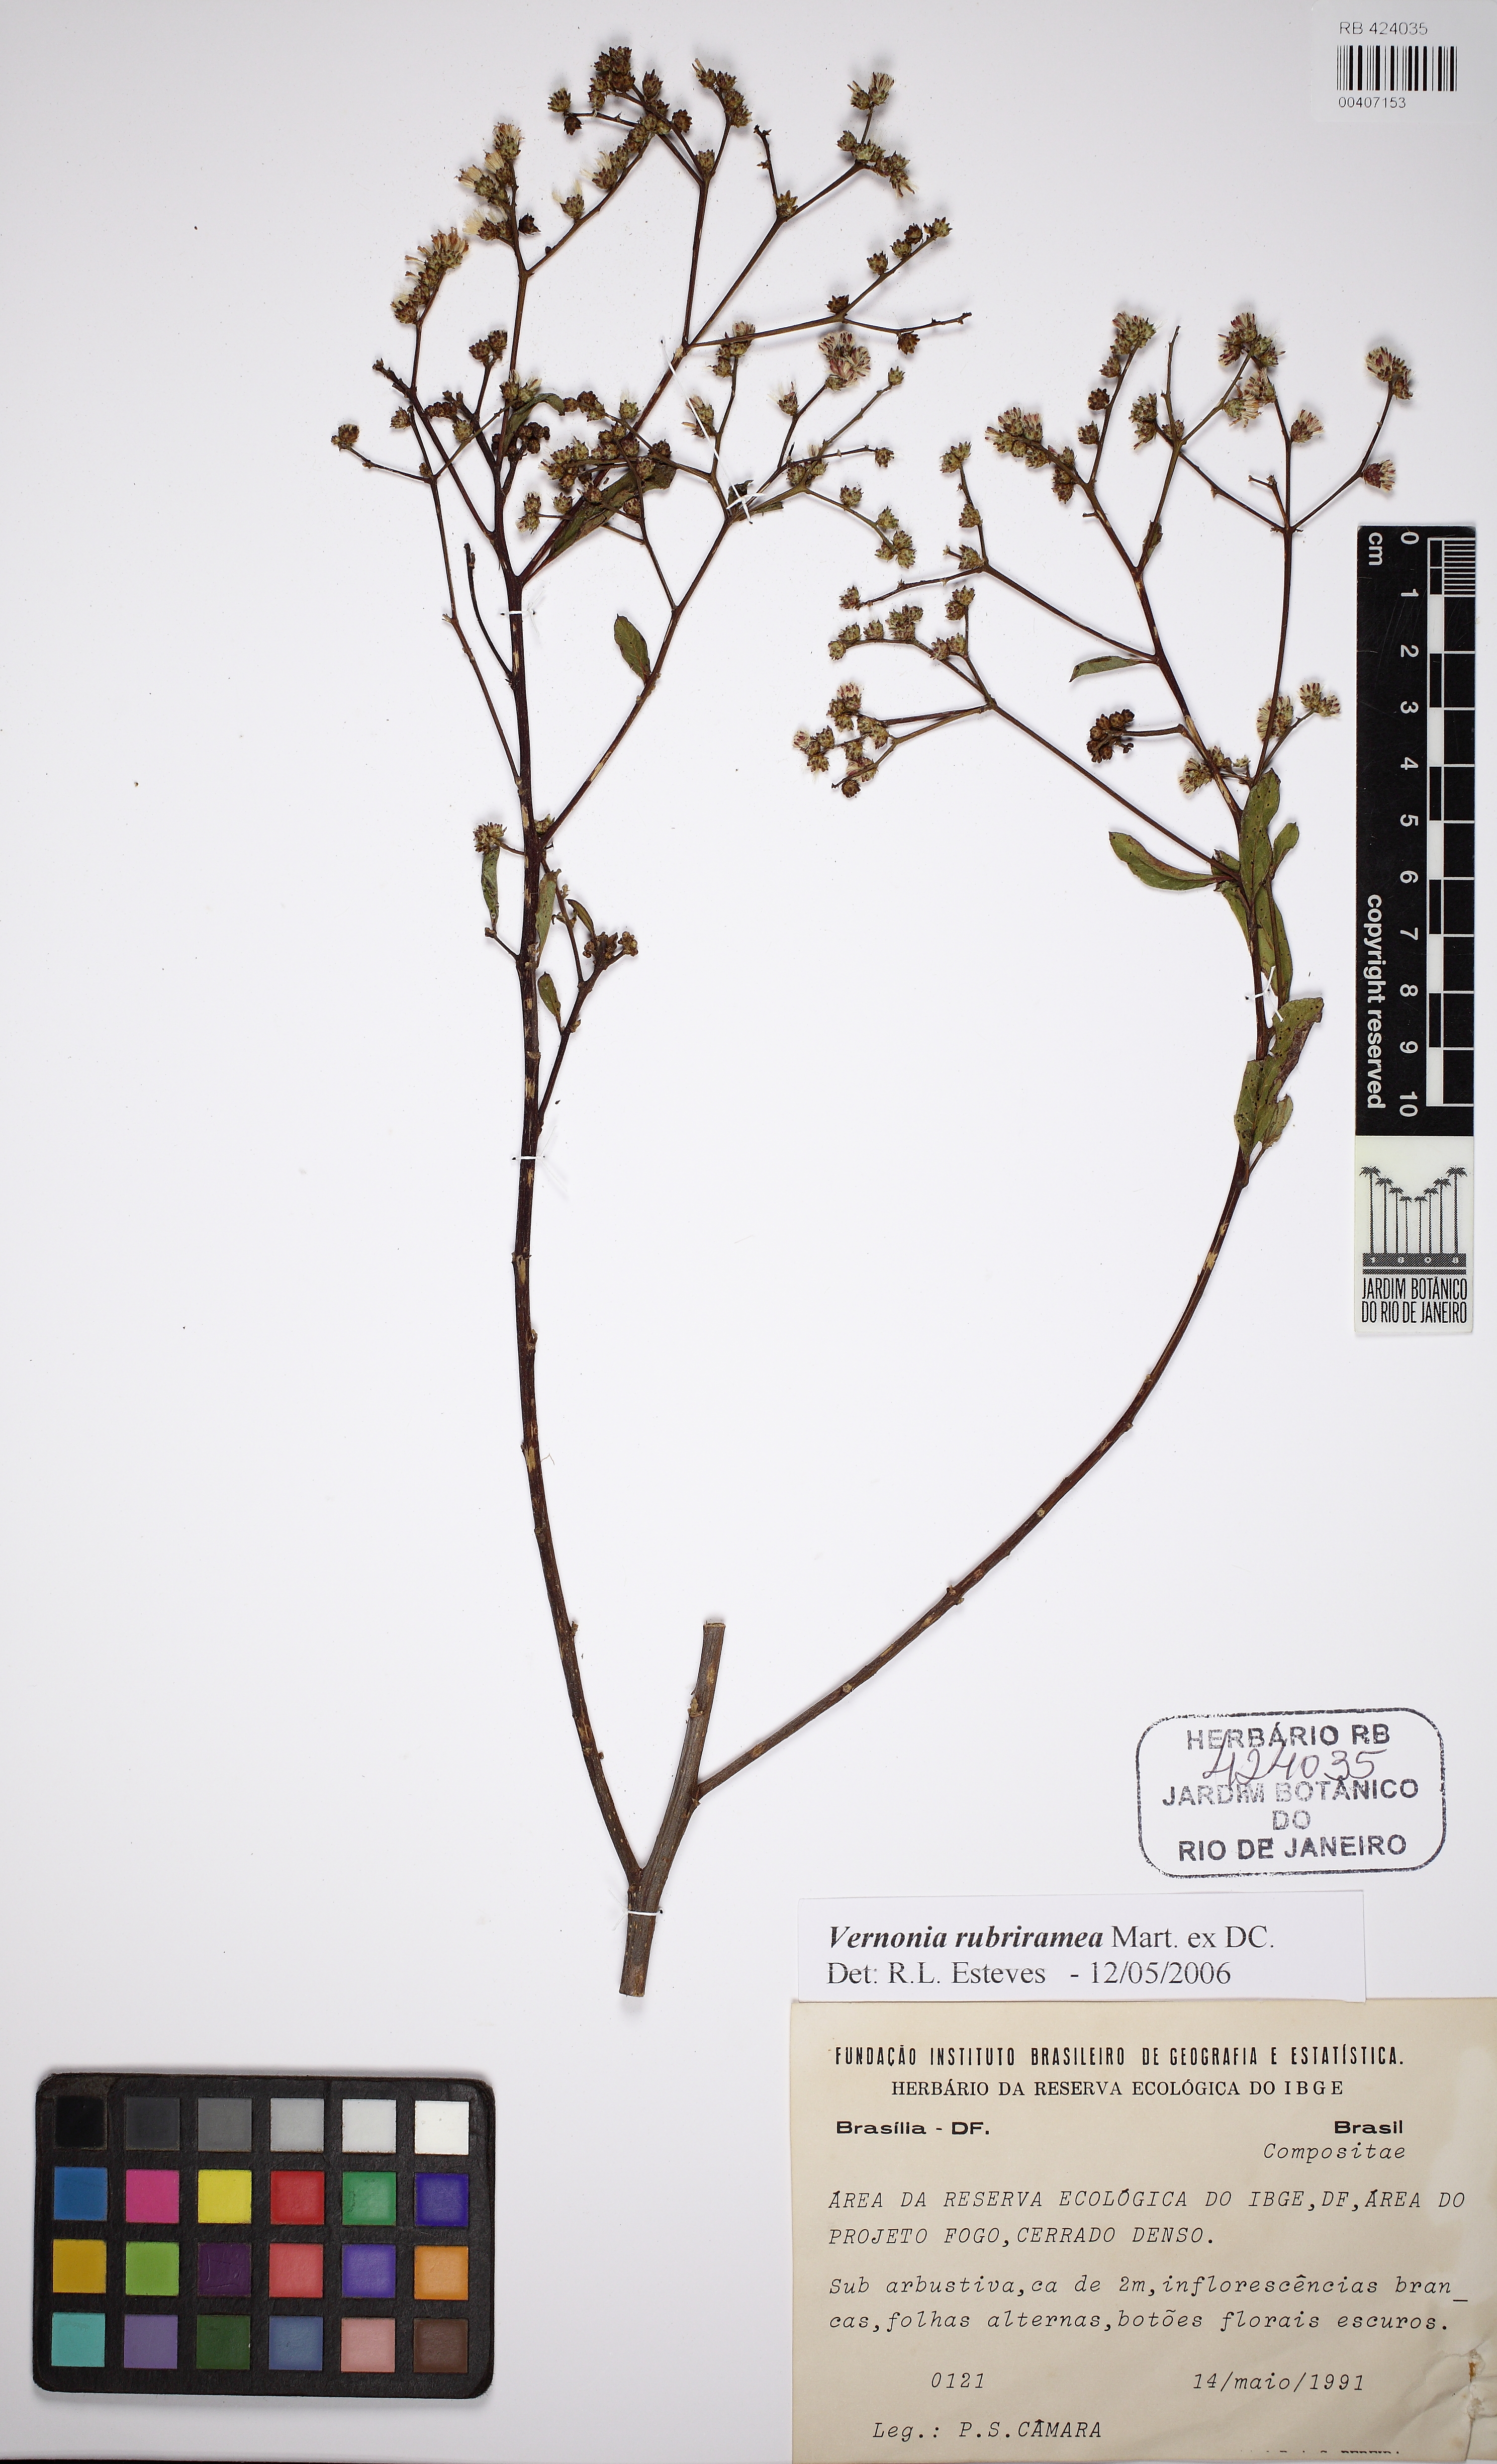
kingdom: Plantae
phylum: Tracheophyta
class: Magnoliopsida
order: Asterales
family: Asteraceae
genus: Vernonanthura
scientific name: Vernonanthura rubriramea
